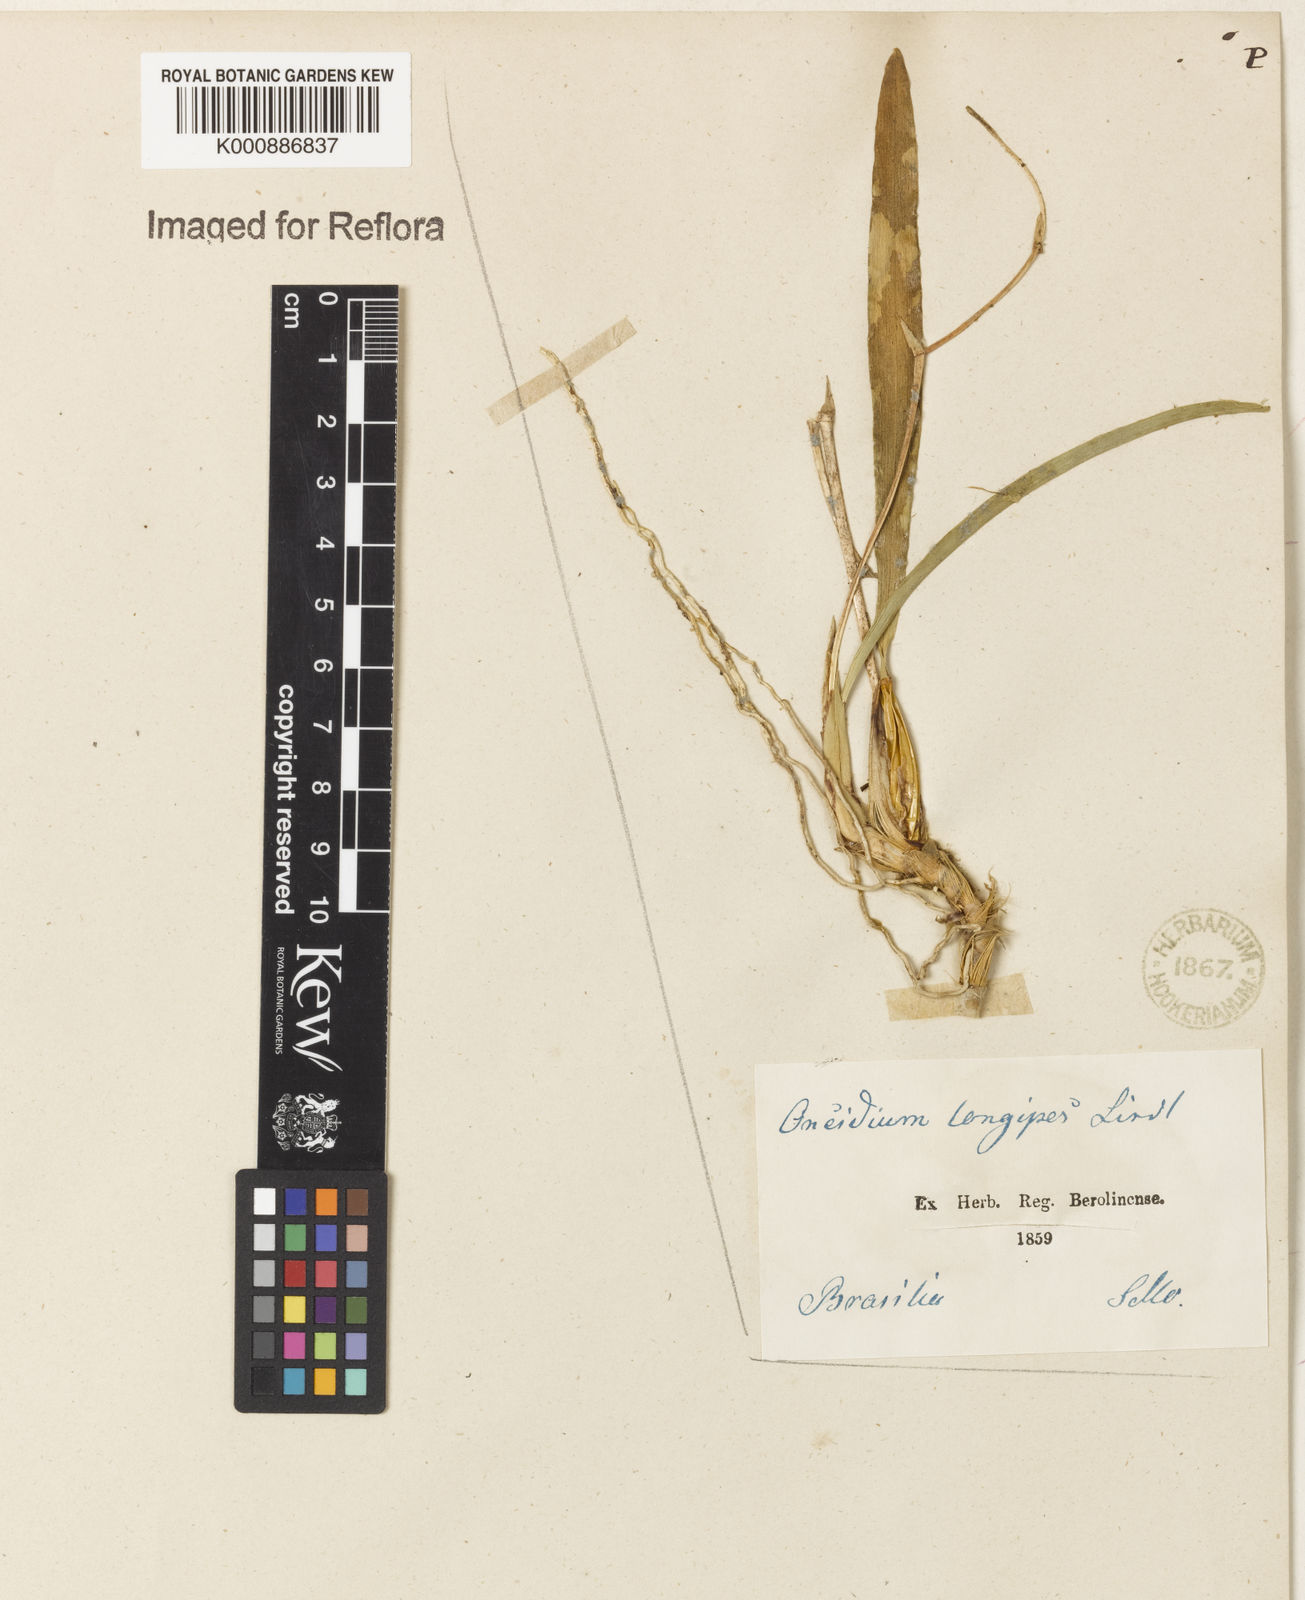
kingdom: Plantae
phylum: Tracheophyta
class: Liliopsida
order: Asparagales
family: Orchidaceae
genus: Gomesa
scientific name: Gomesa uniflora
